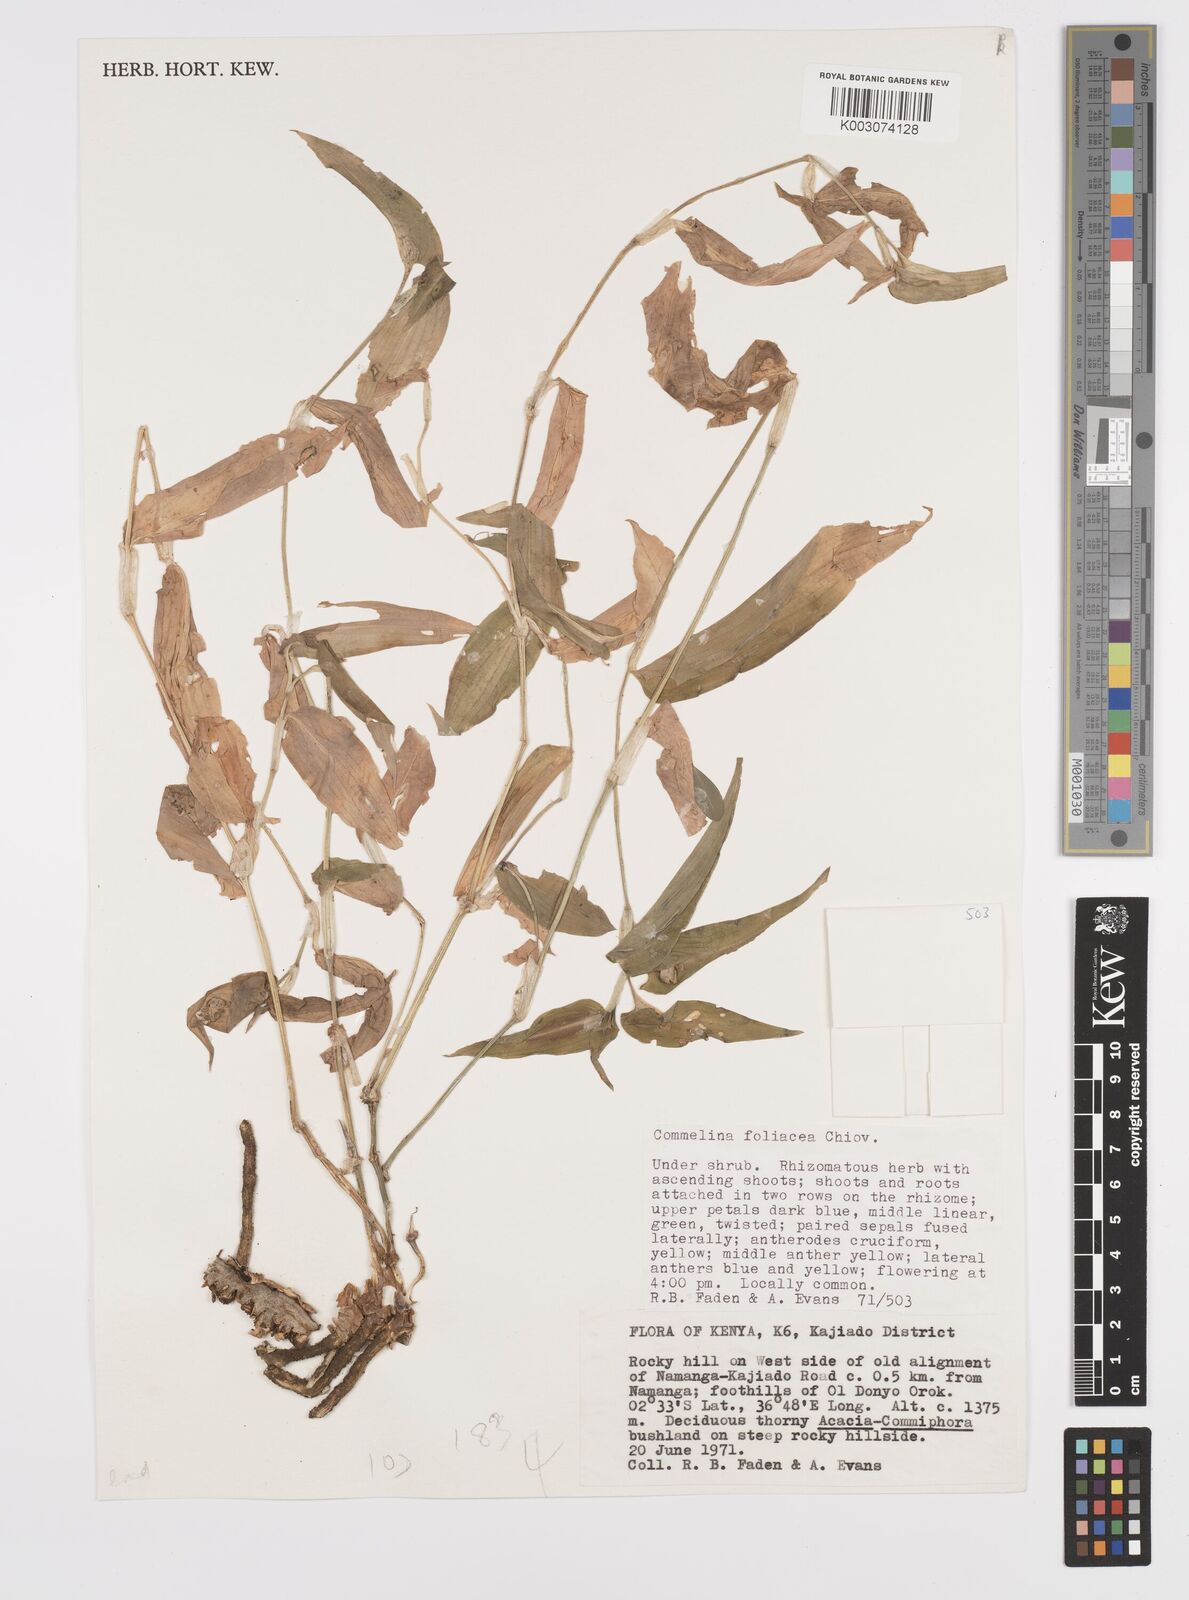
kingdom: Plantae
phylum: Tracheophyta
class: Liliopsida
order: Commelinales
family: Commelinaceae
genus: Commelina
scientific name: Commelina foliacea
